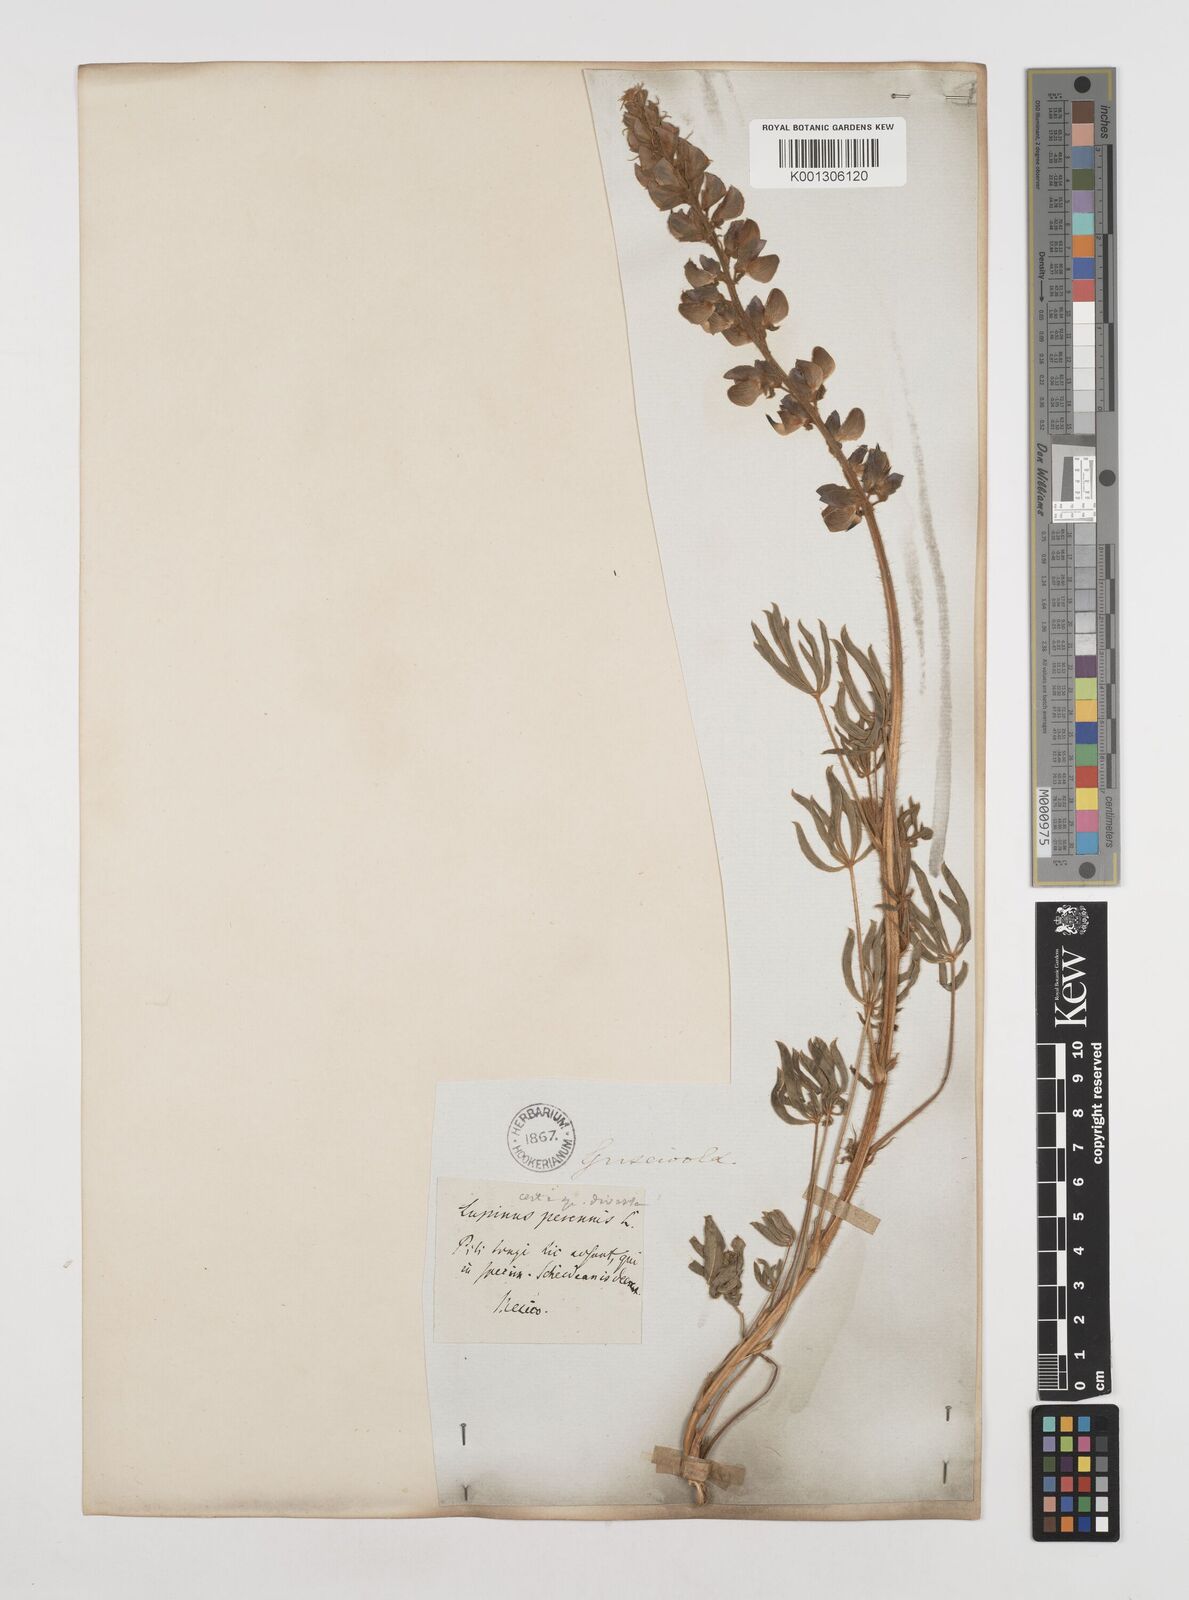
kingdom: Plantae
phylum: Tracheophyta
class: Magnoliopsida
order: Fabales
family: Fabaceae
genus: Lupinus
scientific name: Lupinus ehrenbergii
